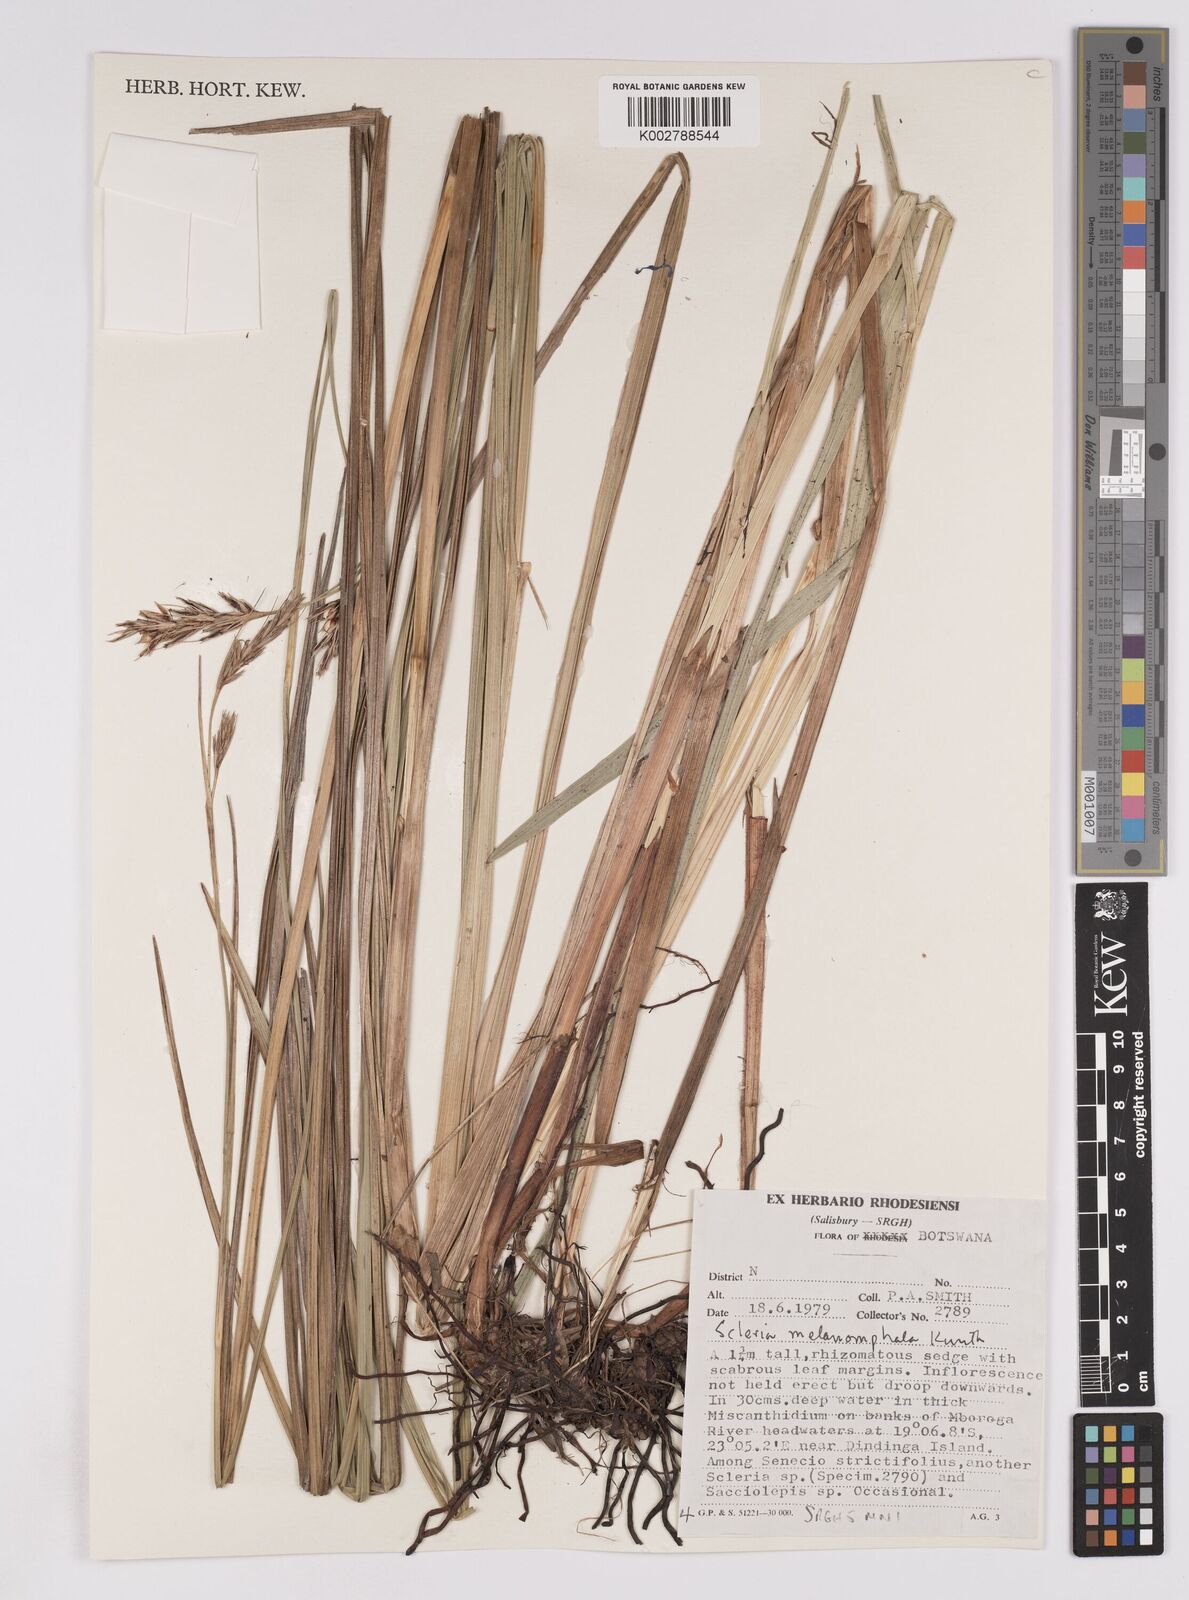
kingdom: Plantae
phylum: Tracheophyta
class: Liliopsida
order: Poales
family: Cyperaceae
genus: Scleria
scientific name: Scleria melanomphala
